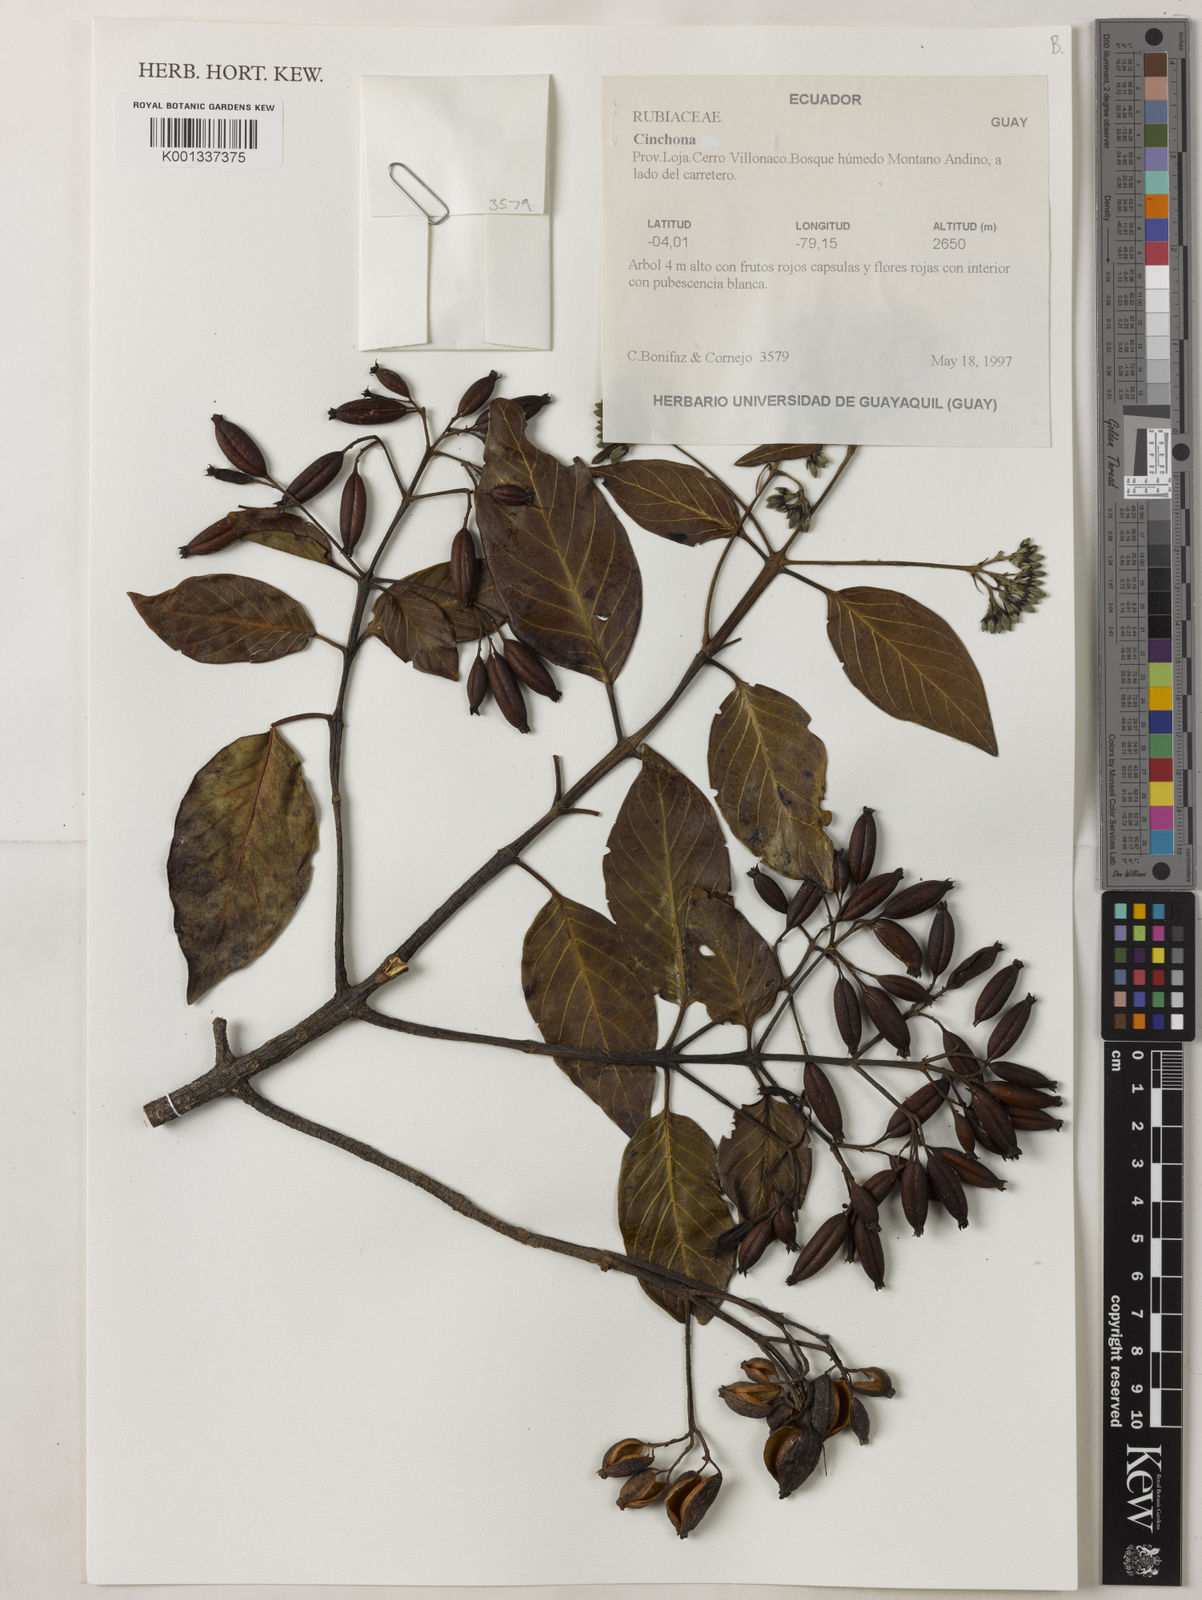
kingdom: Plantae
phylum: Tracheophyta
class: Magnoliopsida
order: Gentianales
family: Rubiaceae
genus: Cinchona
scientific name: Cinchona
